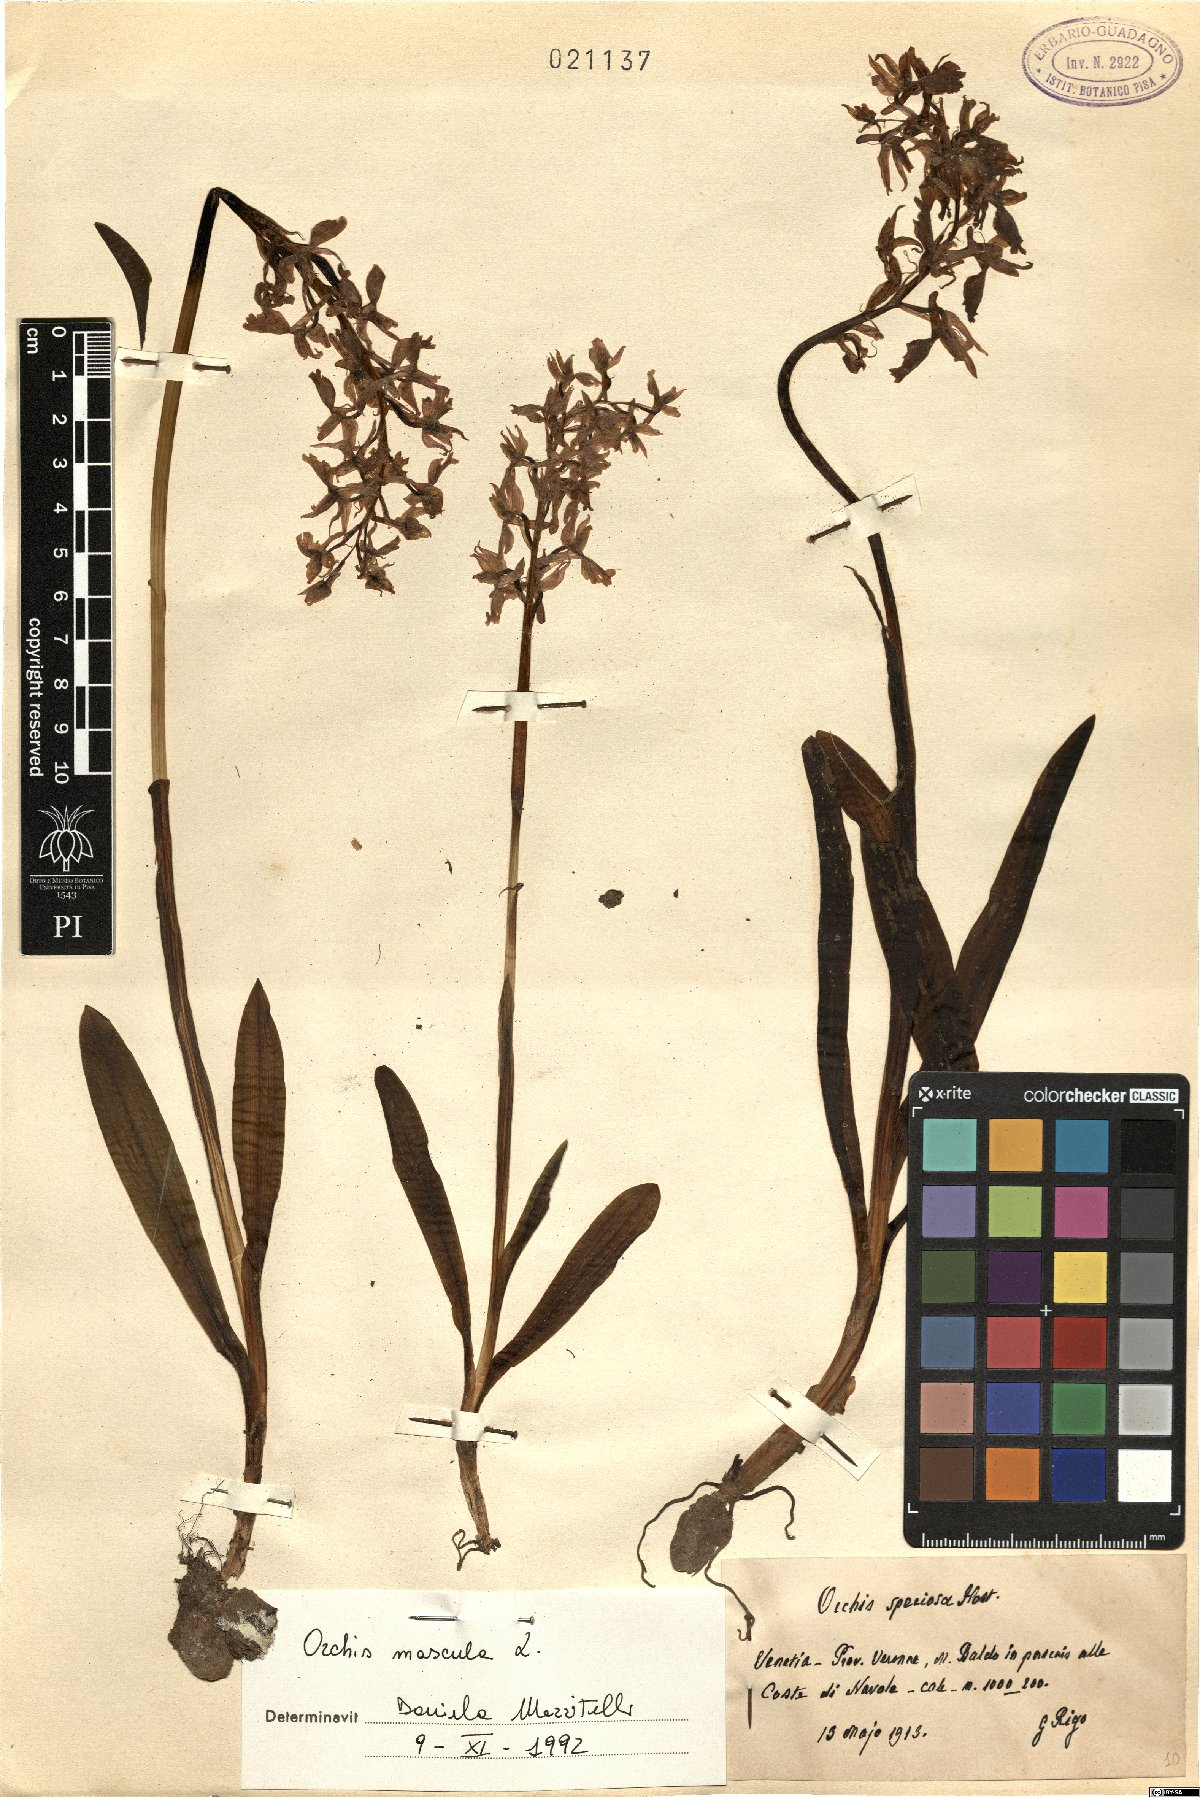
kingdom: Plantae
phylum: Tracheophyta
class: Liliopsida
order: Asparagales
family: Orchidaceae
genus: Orchis
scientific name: Orchis mascula
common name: Early-purple orchid
